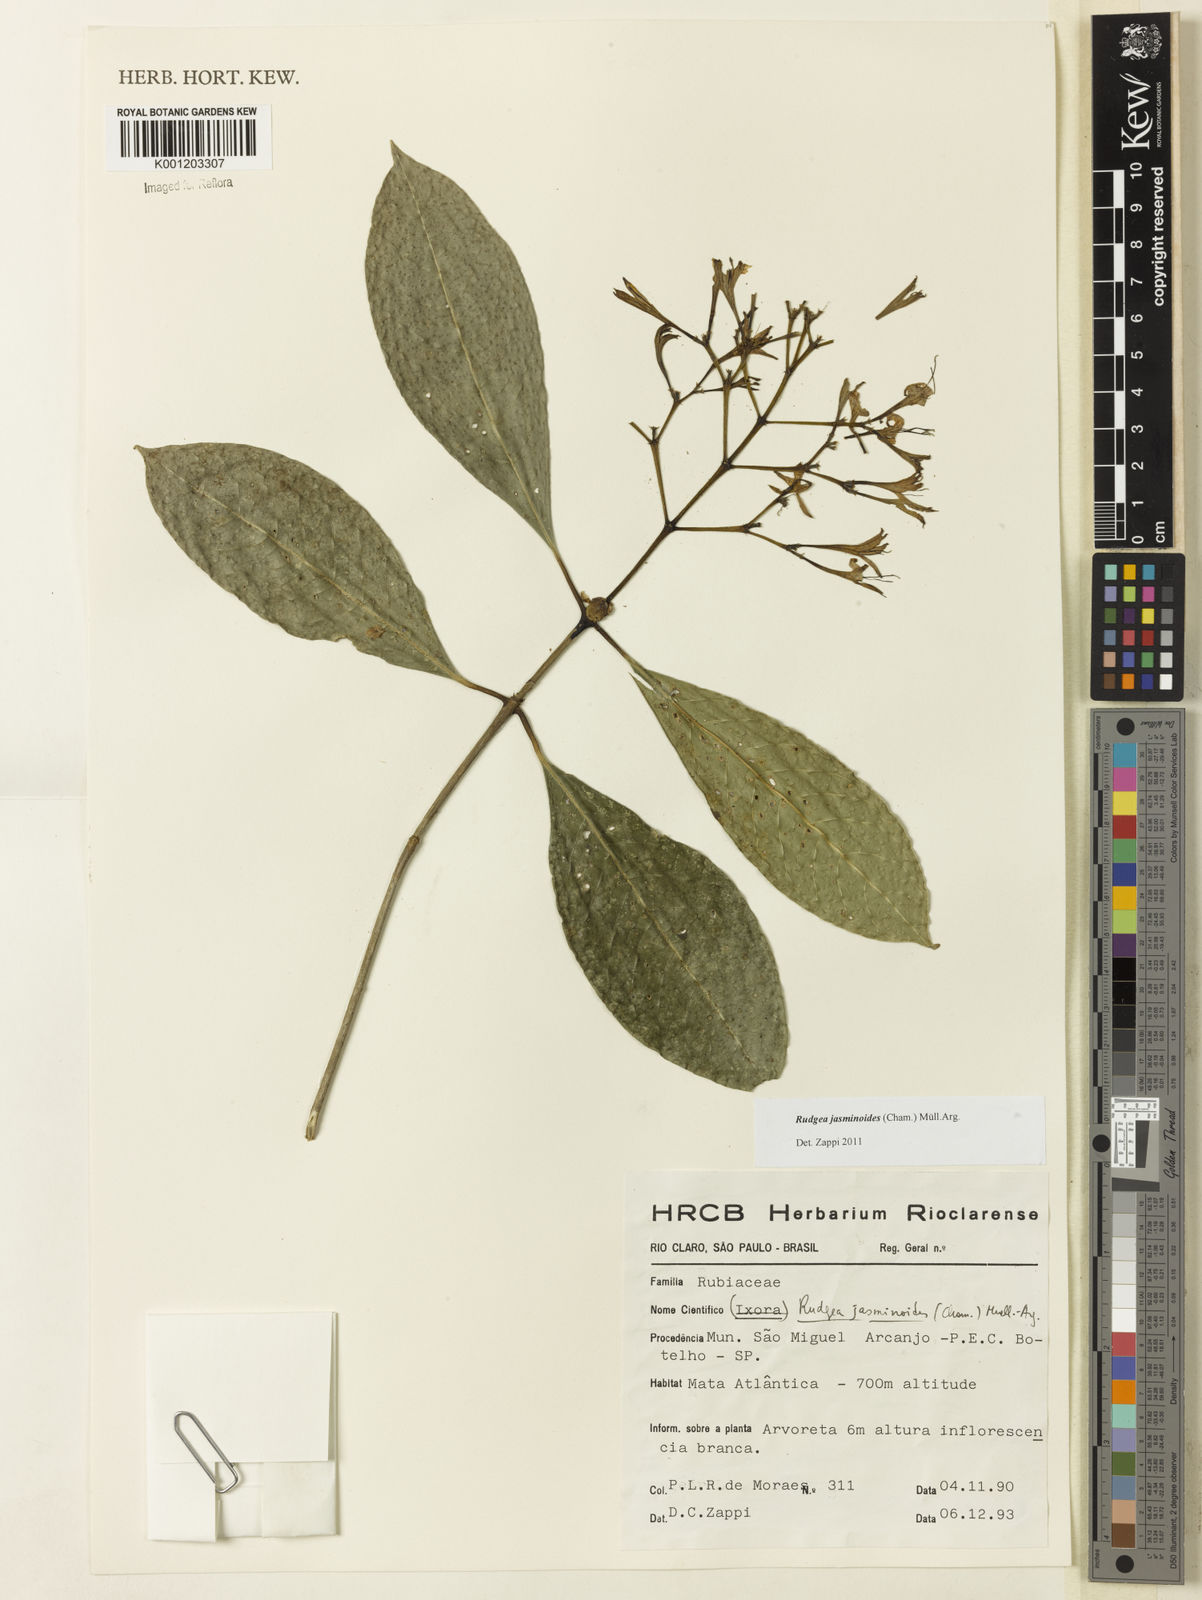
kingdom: Plantae
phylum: Tracheophyta
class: Magnoliopsida
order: Gentianales
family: Rubiaceae
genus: Rudgea
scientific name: Rudgea
